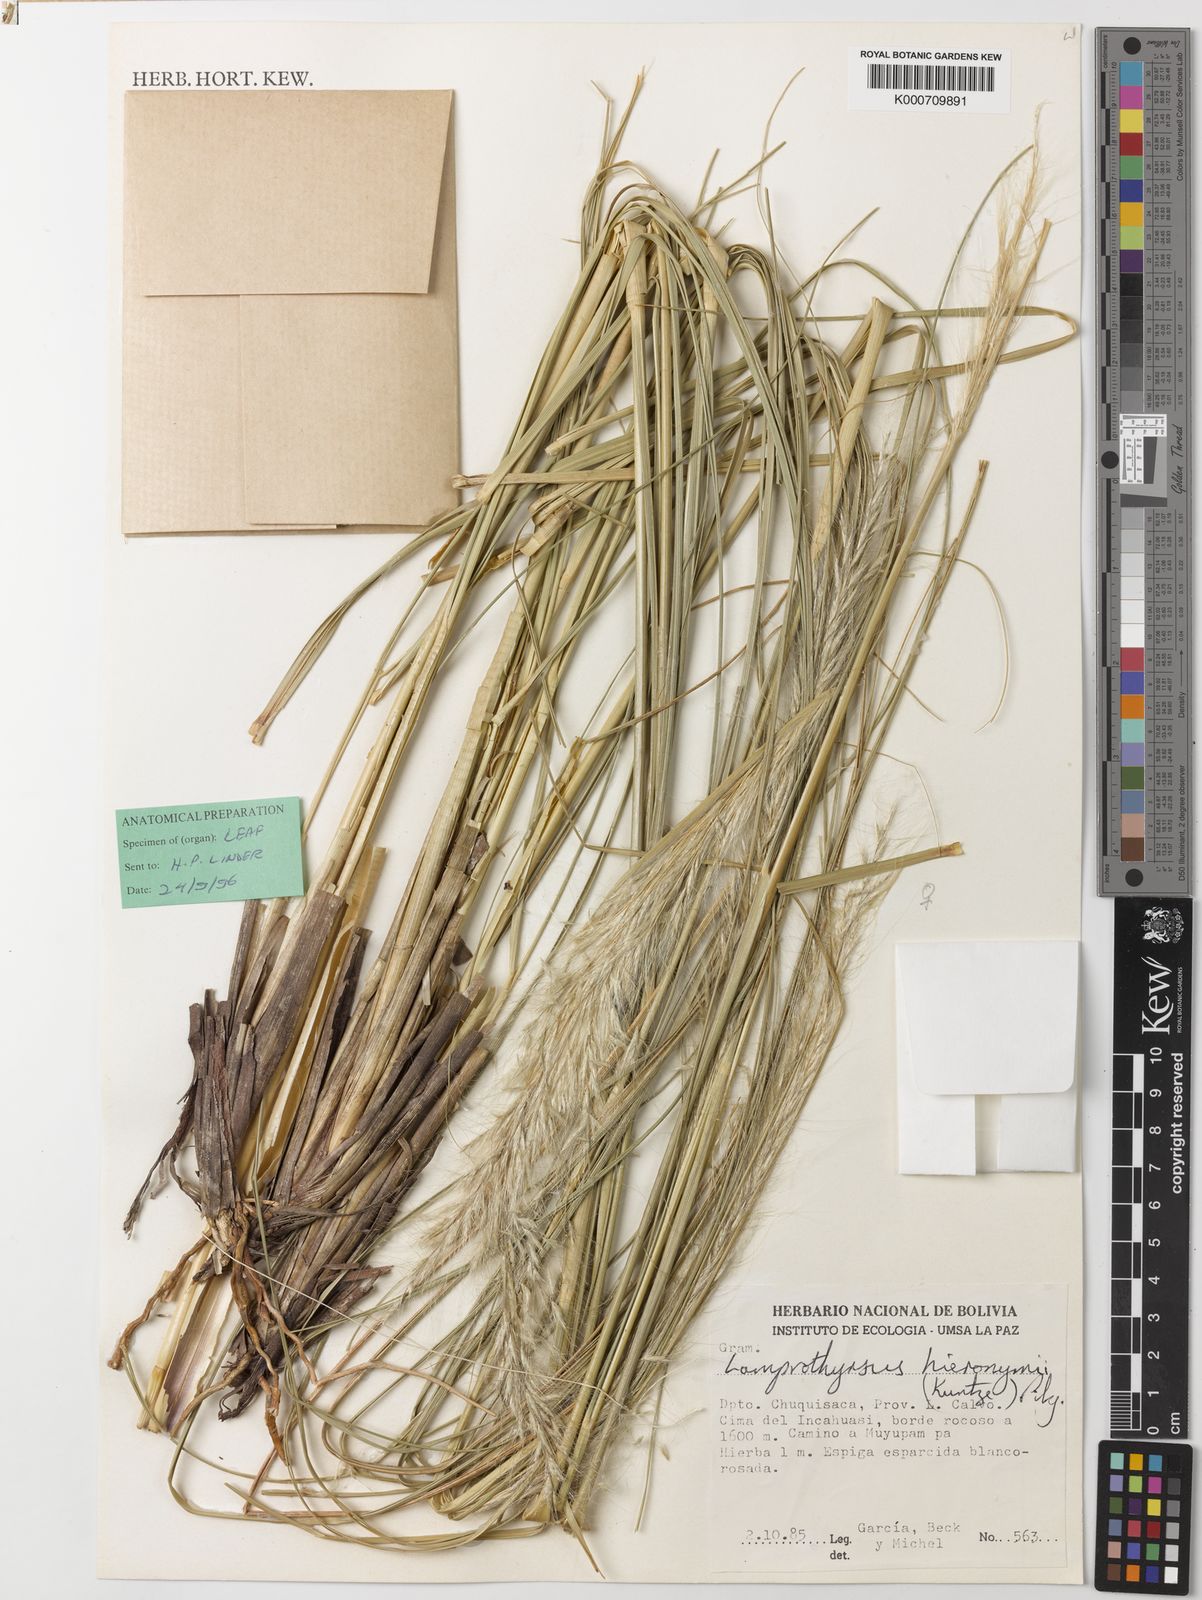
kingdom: Plantae
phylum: Tracheophyta
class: Liliopsida
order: Poales
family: Poaceae
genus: Cortaderia
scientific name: Cortaderia hieronymi
